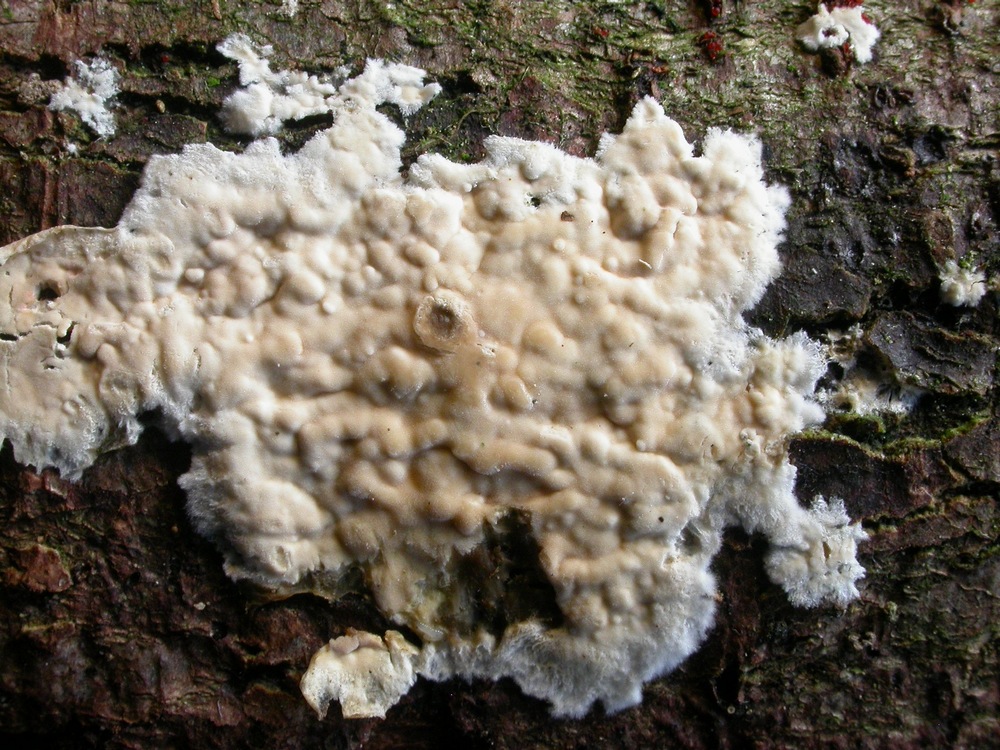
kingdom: Fungi
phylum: Basidiomycota
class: Agaricomycetes
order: Agaricales
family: Physalacriaceae
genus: Cylindrobasidium
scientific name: Cylindrobasidium evolvens
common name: sprækkehinde
